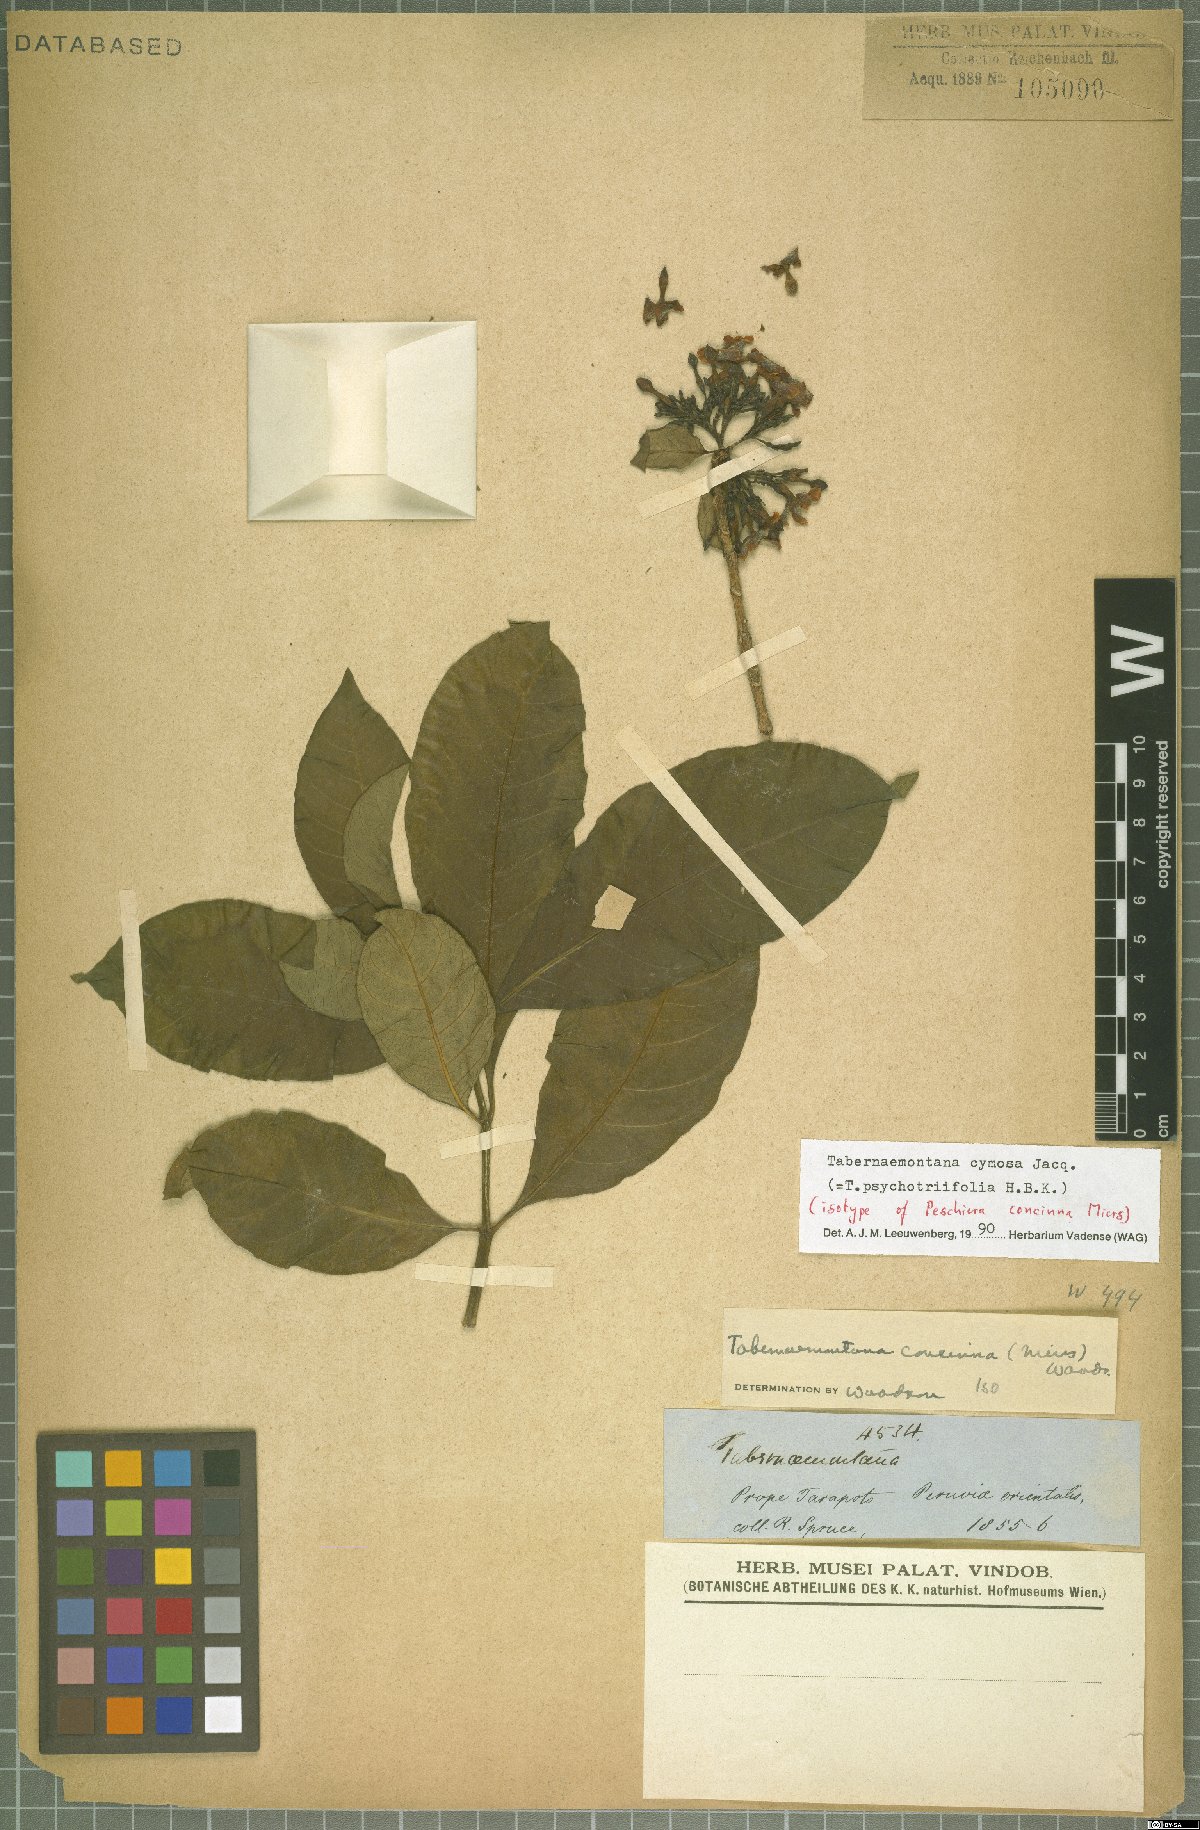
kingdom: Plantae
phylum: Tracheophyta
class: Magnoliopsida
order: Gentianales
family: Apocynaceae
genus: Tabernaemontana
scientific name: Tabernaemontana cymosa
